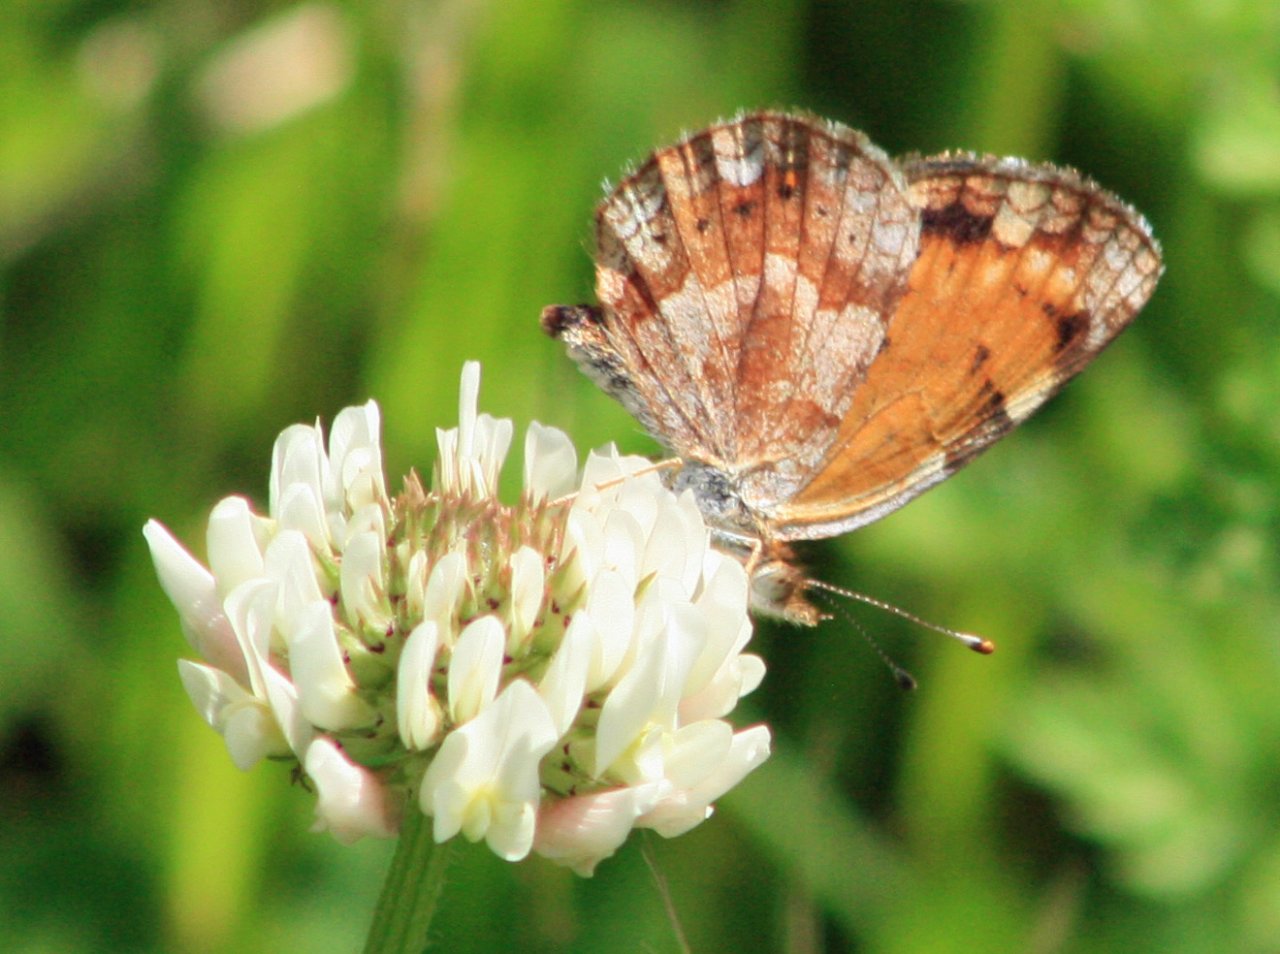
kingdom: Animalia
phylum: Arthropoda
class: Insecta
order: Lepidoptera
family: Nymphalidae
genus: Phyciodes
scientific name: Phyciodes tharos
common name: Northern Crescent
